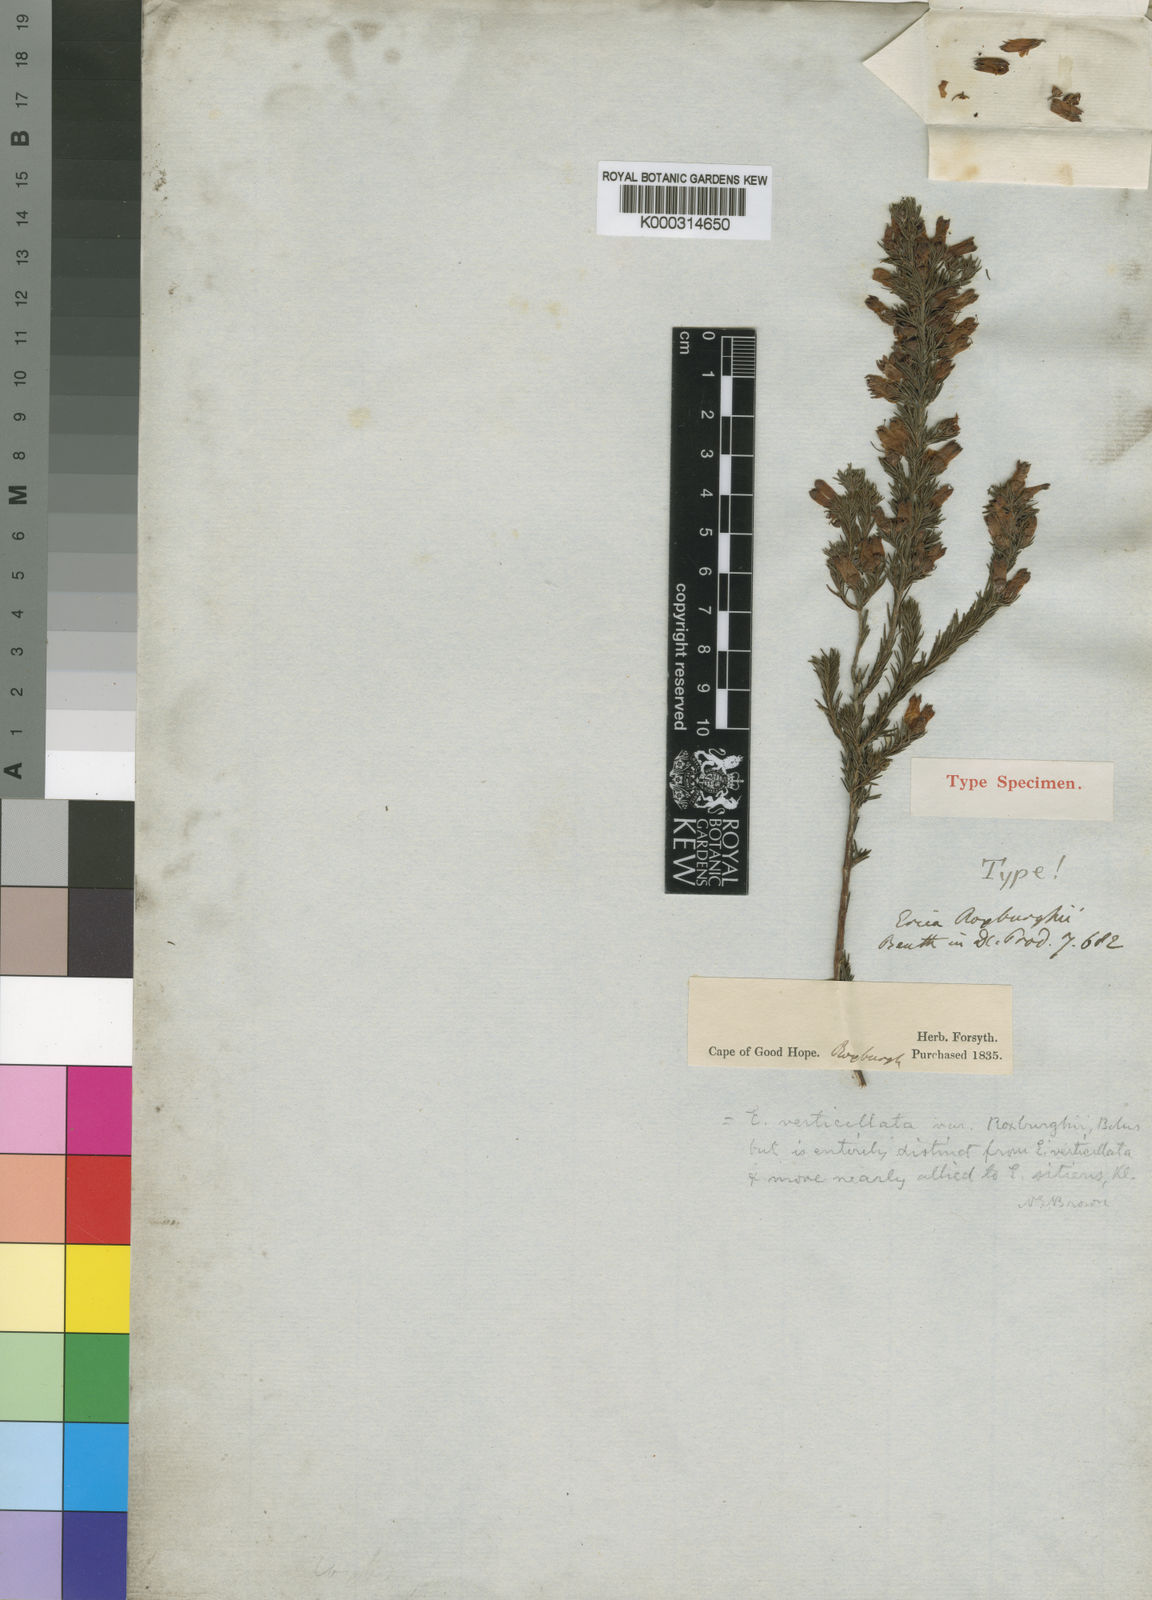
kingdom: Plantae
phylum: Tracheophyta
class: Magnoliopsida
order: Ericales
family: Ericaceae
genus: Erica
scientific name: Erica verticillata
